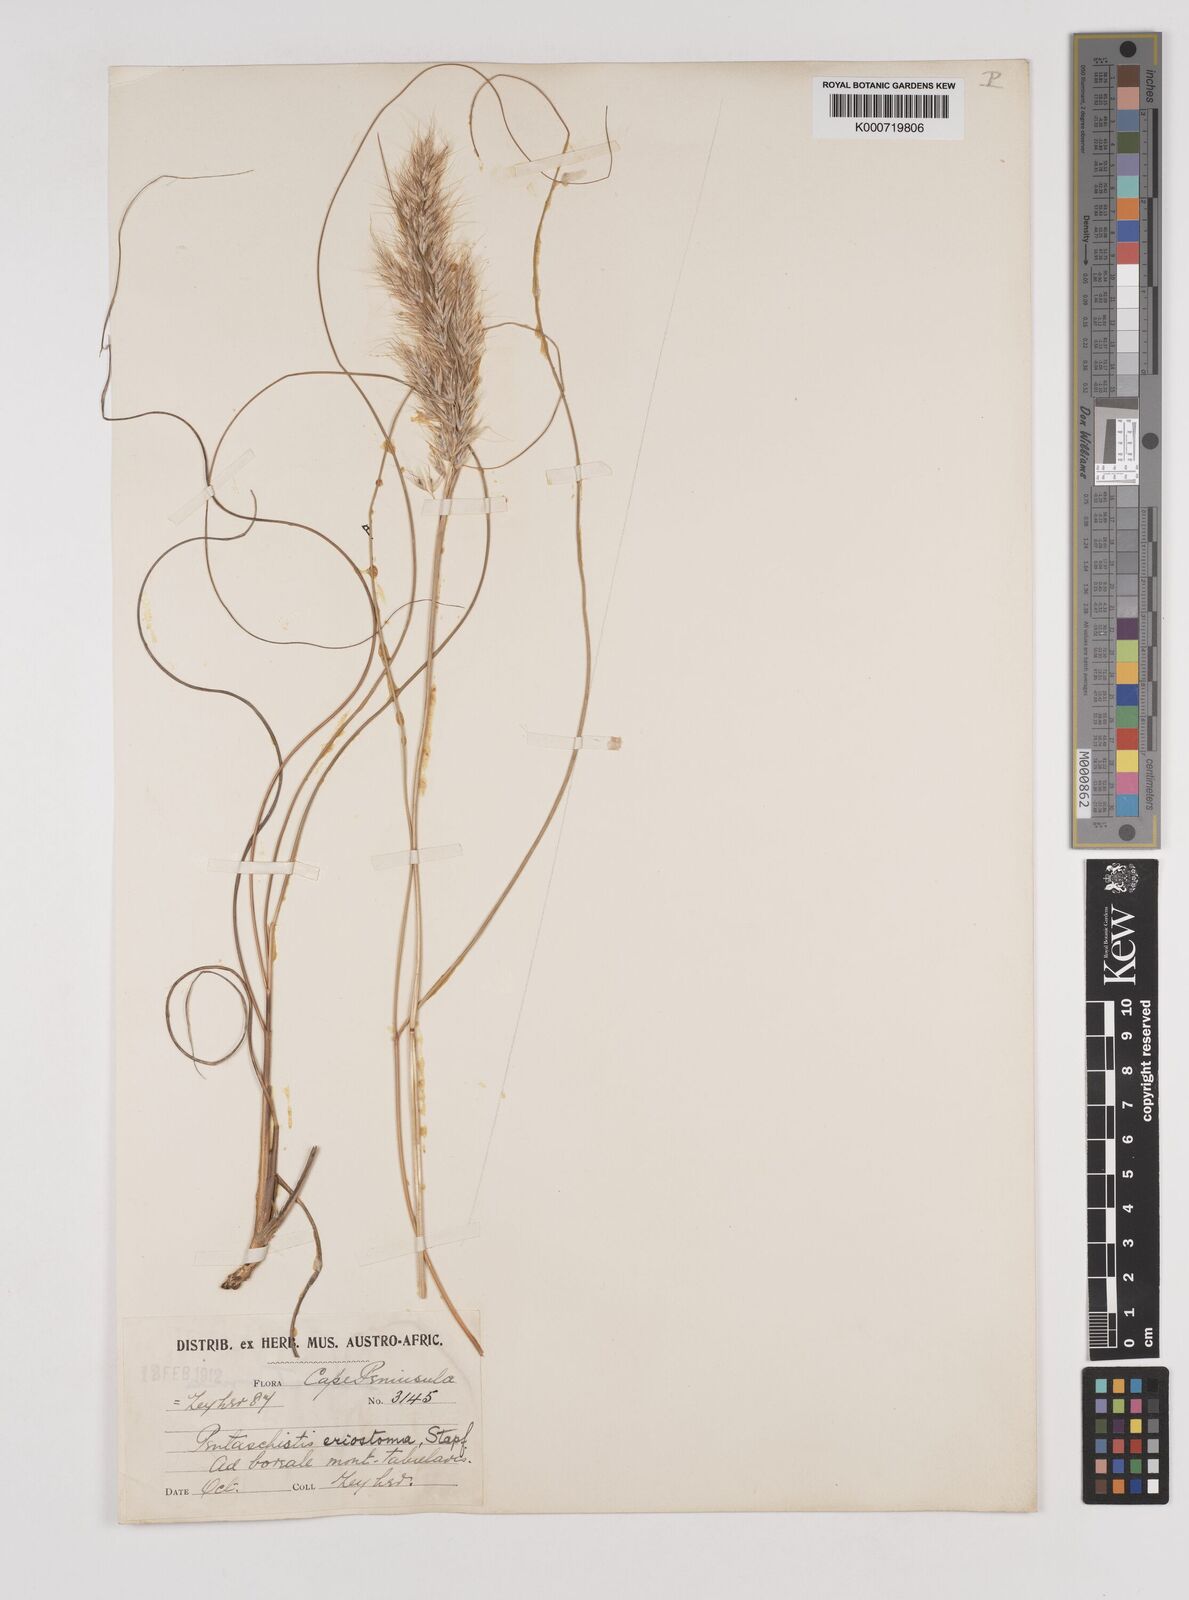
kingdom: Plantae
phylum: Tracheophyta
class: Liliopsida
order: Poales
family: Poaceae
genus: Pentameris
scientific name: Pentameris eriostoma
